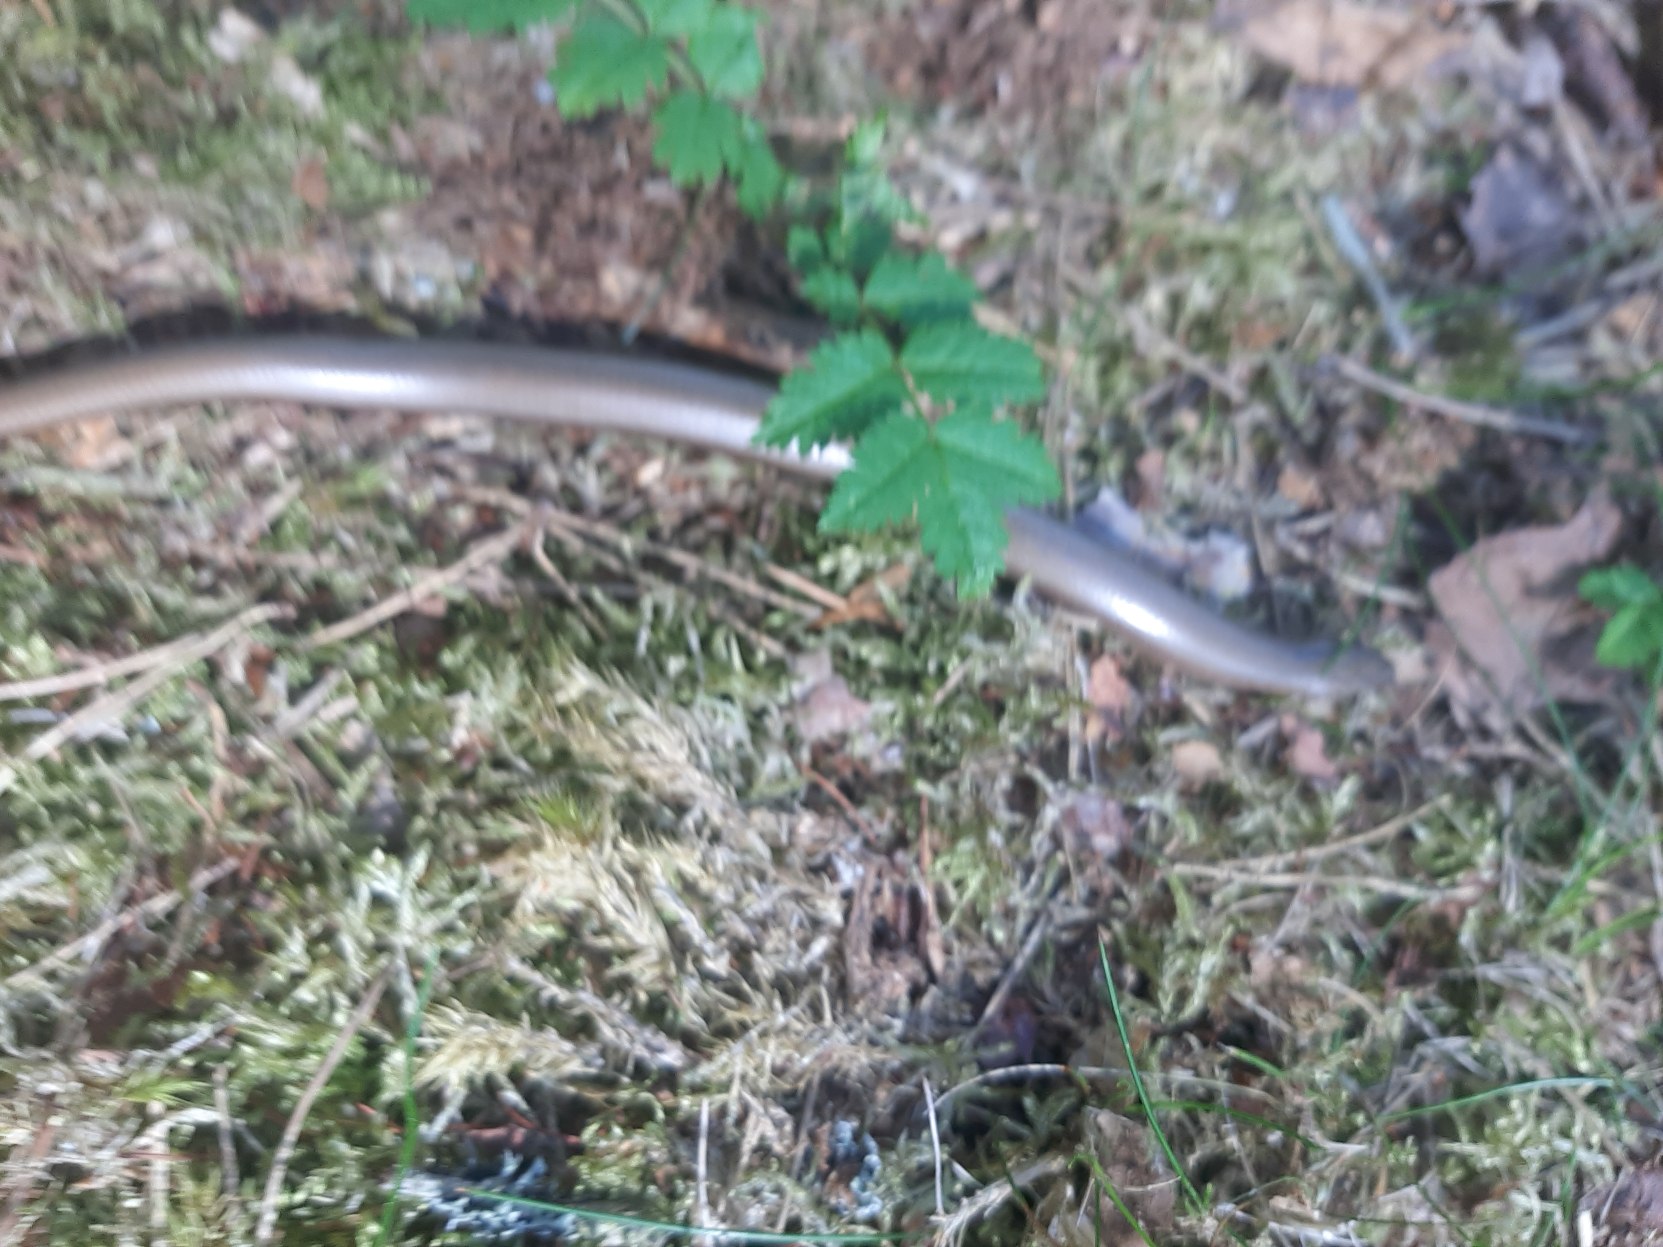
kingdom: Animalia
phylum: Chordata
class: Squamata
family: Anguidae
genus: Anguis
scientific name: Anguis fragilis
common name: Stålorm
